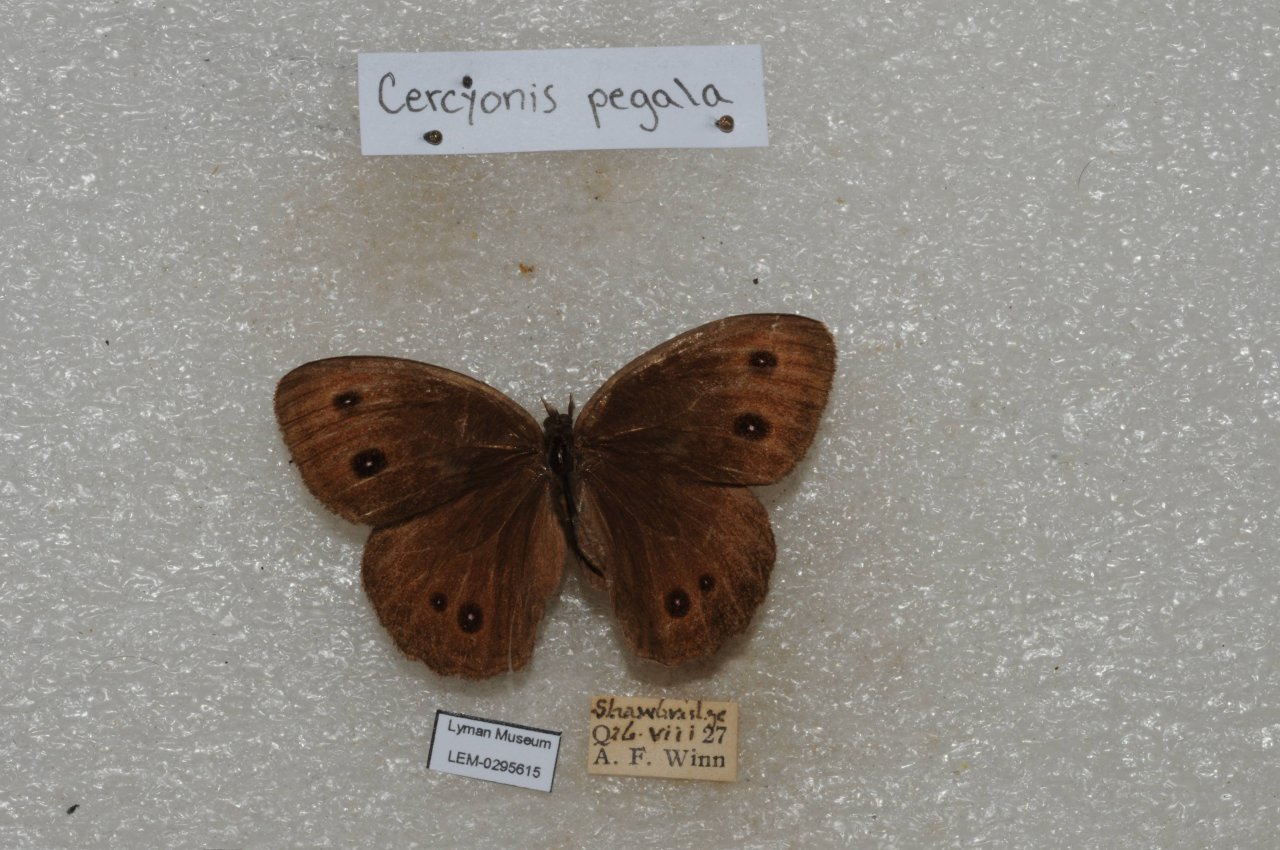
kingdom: Animalia
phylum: Arthropoda
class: Insecta
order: Lepidoptera
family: Nymphalidae
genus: Cercyonis
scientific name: Cercyonis pegala
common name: Common Wood-Nymph
